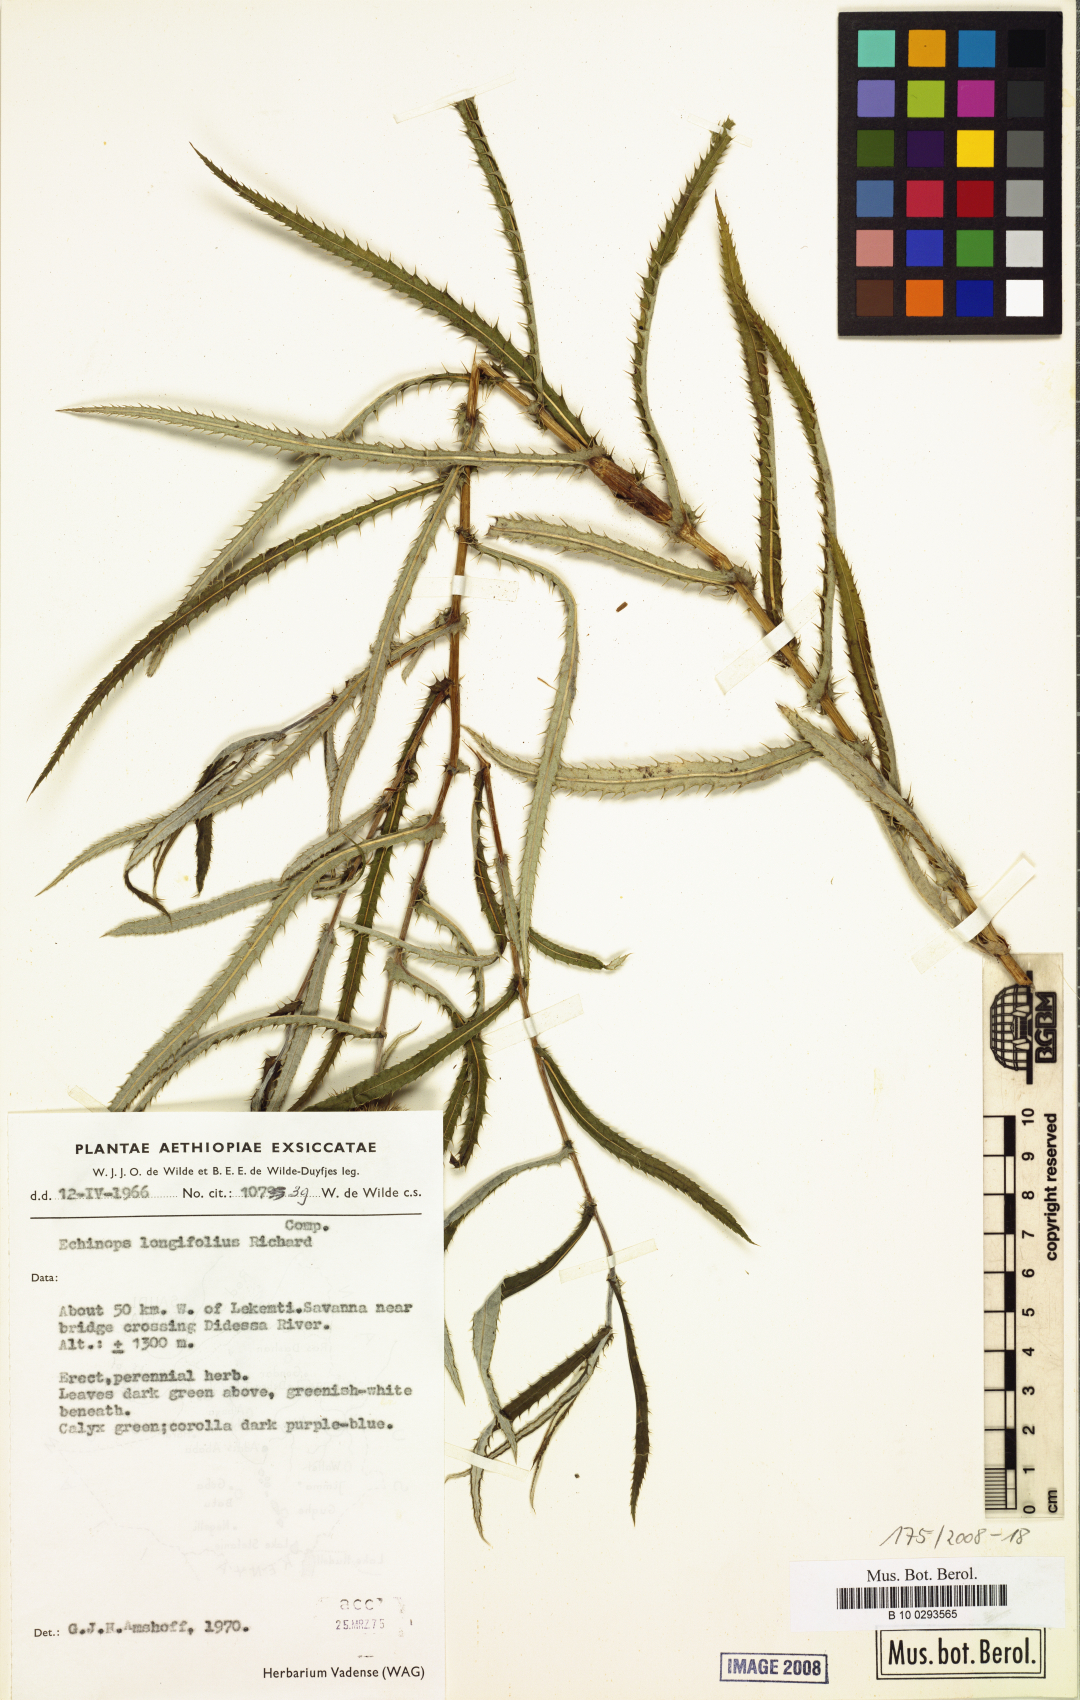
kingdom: Plantae
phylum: Tracheophyta
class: Magnoliopsida
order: Asterales
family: Asteraceae
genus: Echinops
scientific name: Echinops longifolius
